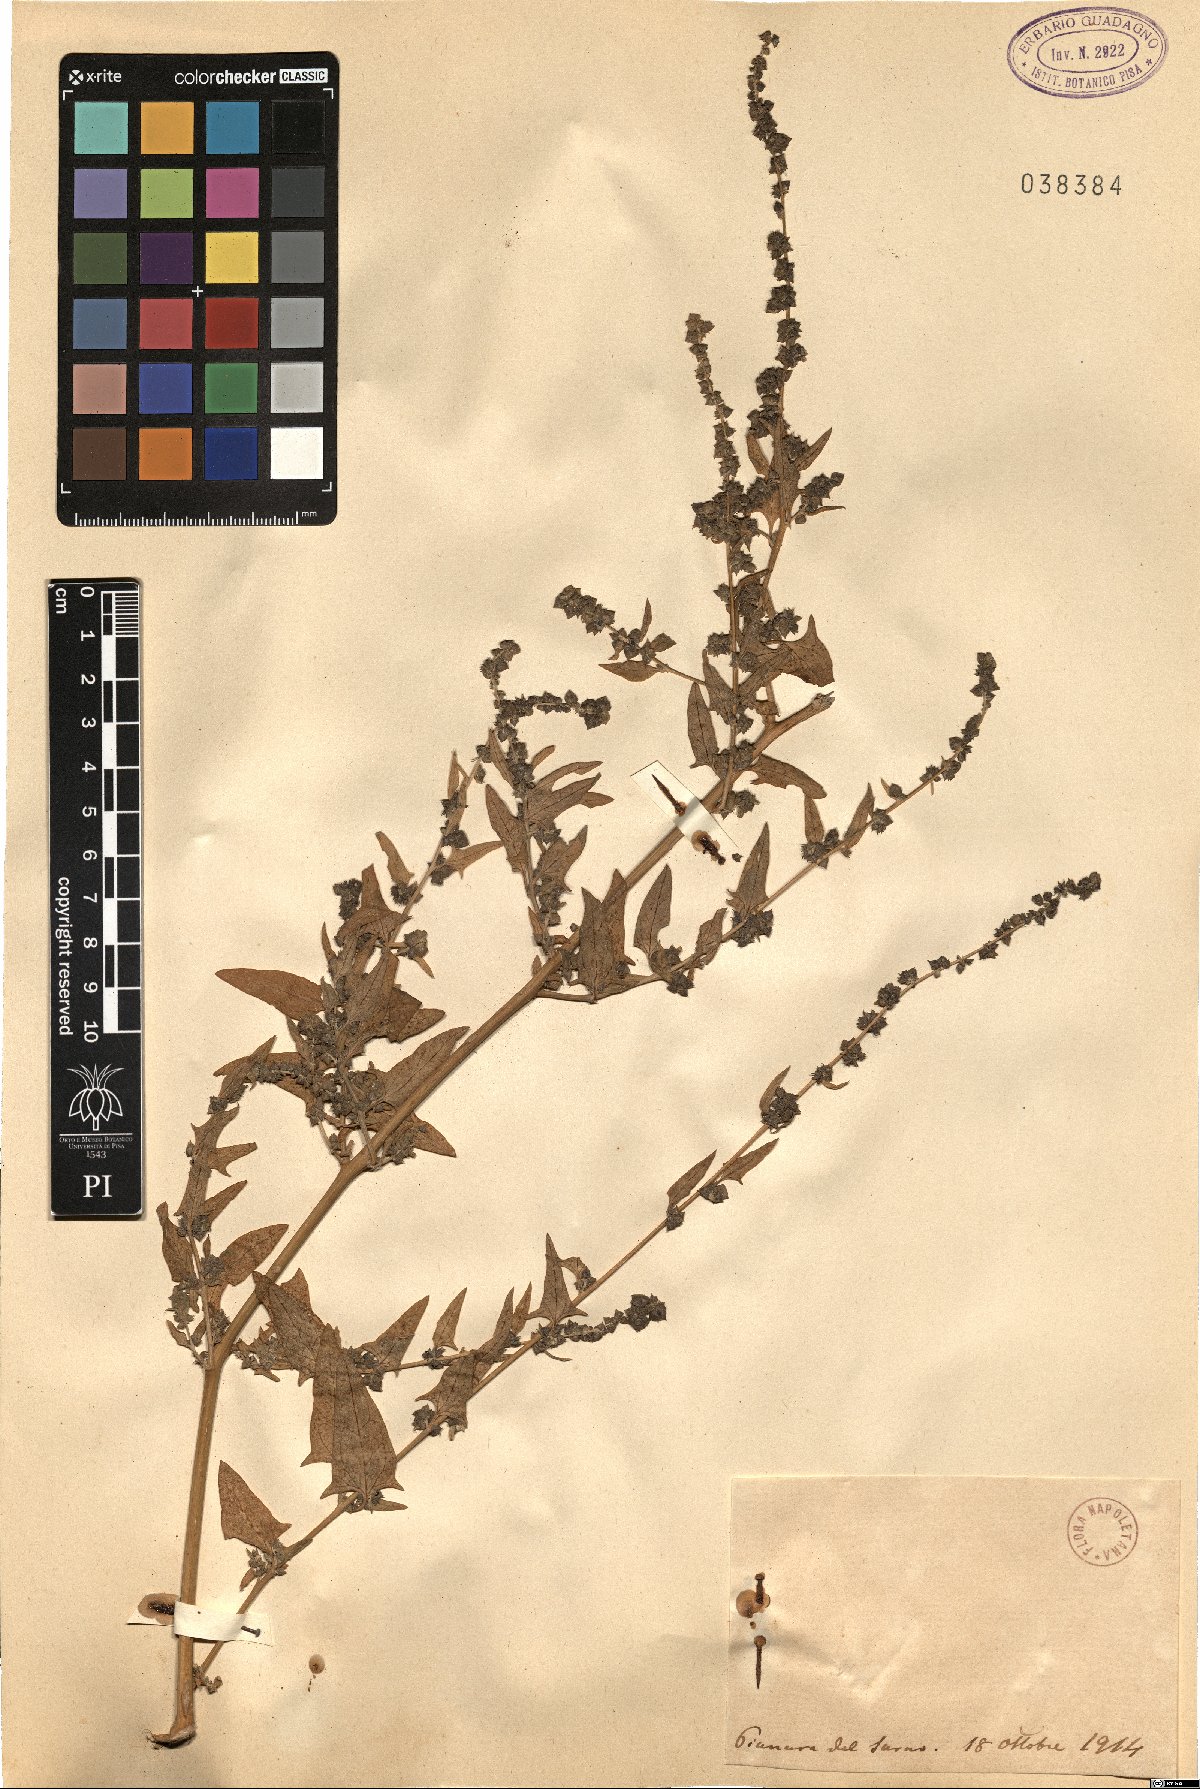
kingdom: Plantae
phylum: Tracheophyta
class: Magnoliopsida
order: Caryophyllales
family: Amaranthaceae
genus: Atriplex
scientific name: Atriplex
